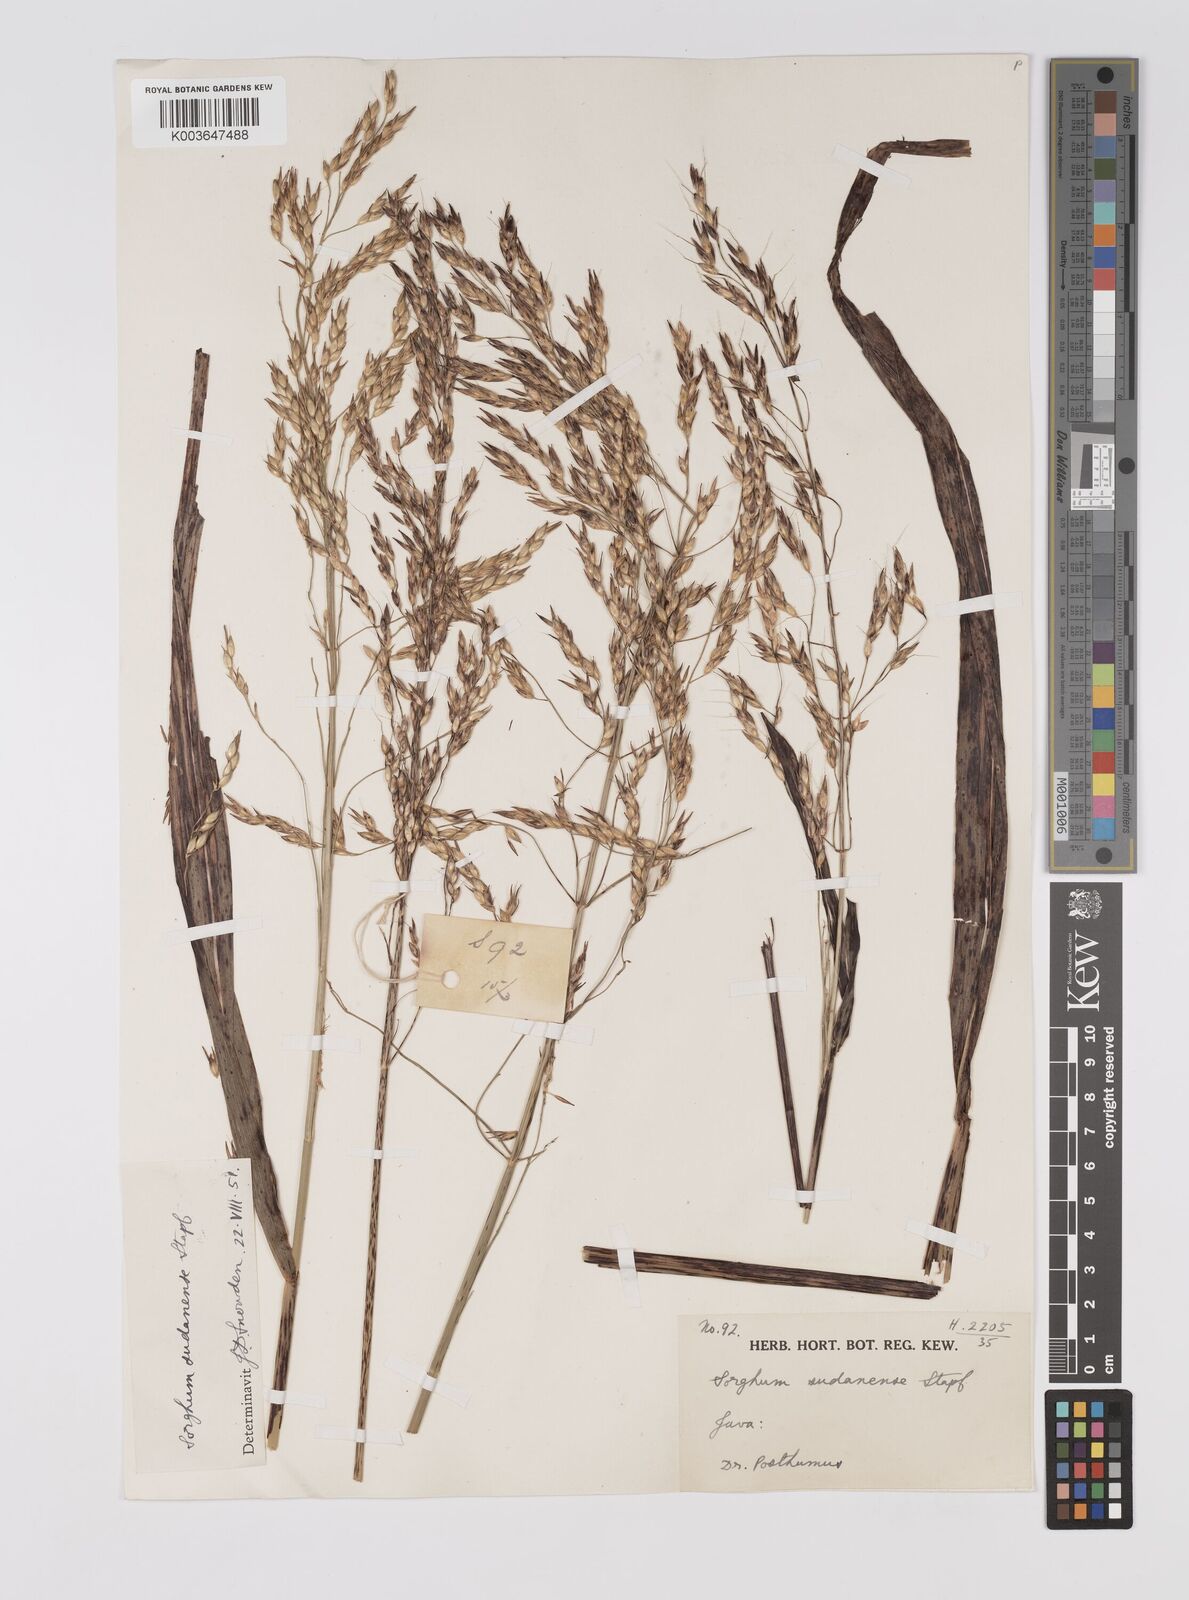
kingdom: Plantae
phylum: Tracheophyta
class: Liliopsida
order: Poales
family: Poaceae
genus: Sorghum
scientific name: Sorghum drummondii
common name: Sudangrass
